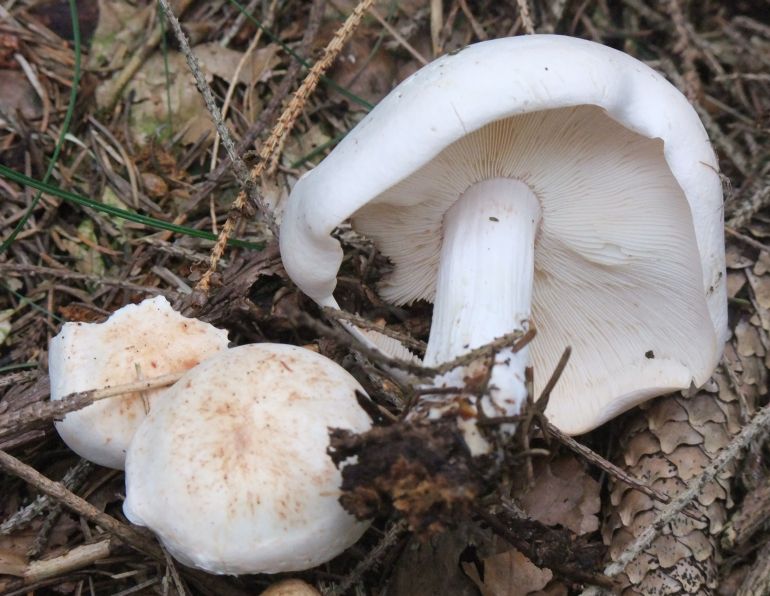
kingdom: Fungi
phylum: Basidiomycota
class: Agaricomycetes
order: Agaricales
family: Omphalotaceae
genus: Rhodocollybia
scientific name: Rhodocollybia maculata
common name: plettet fladhat
